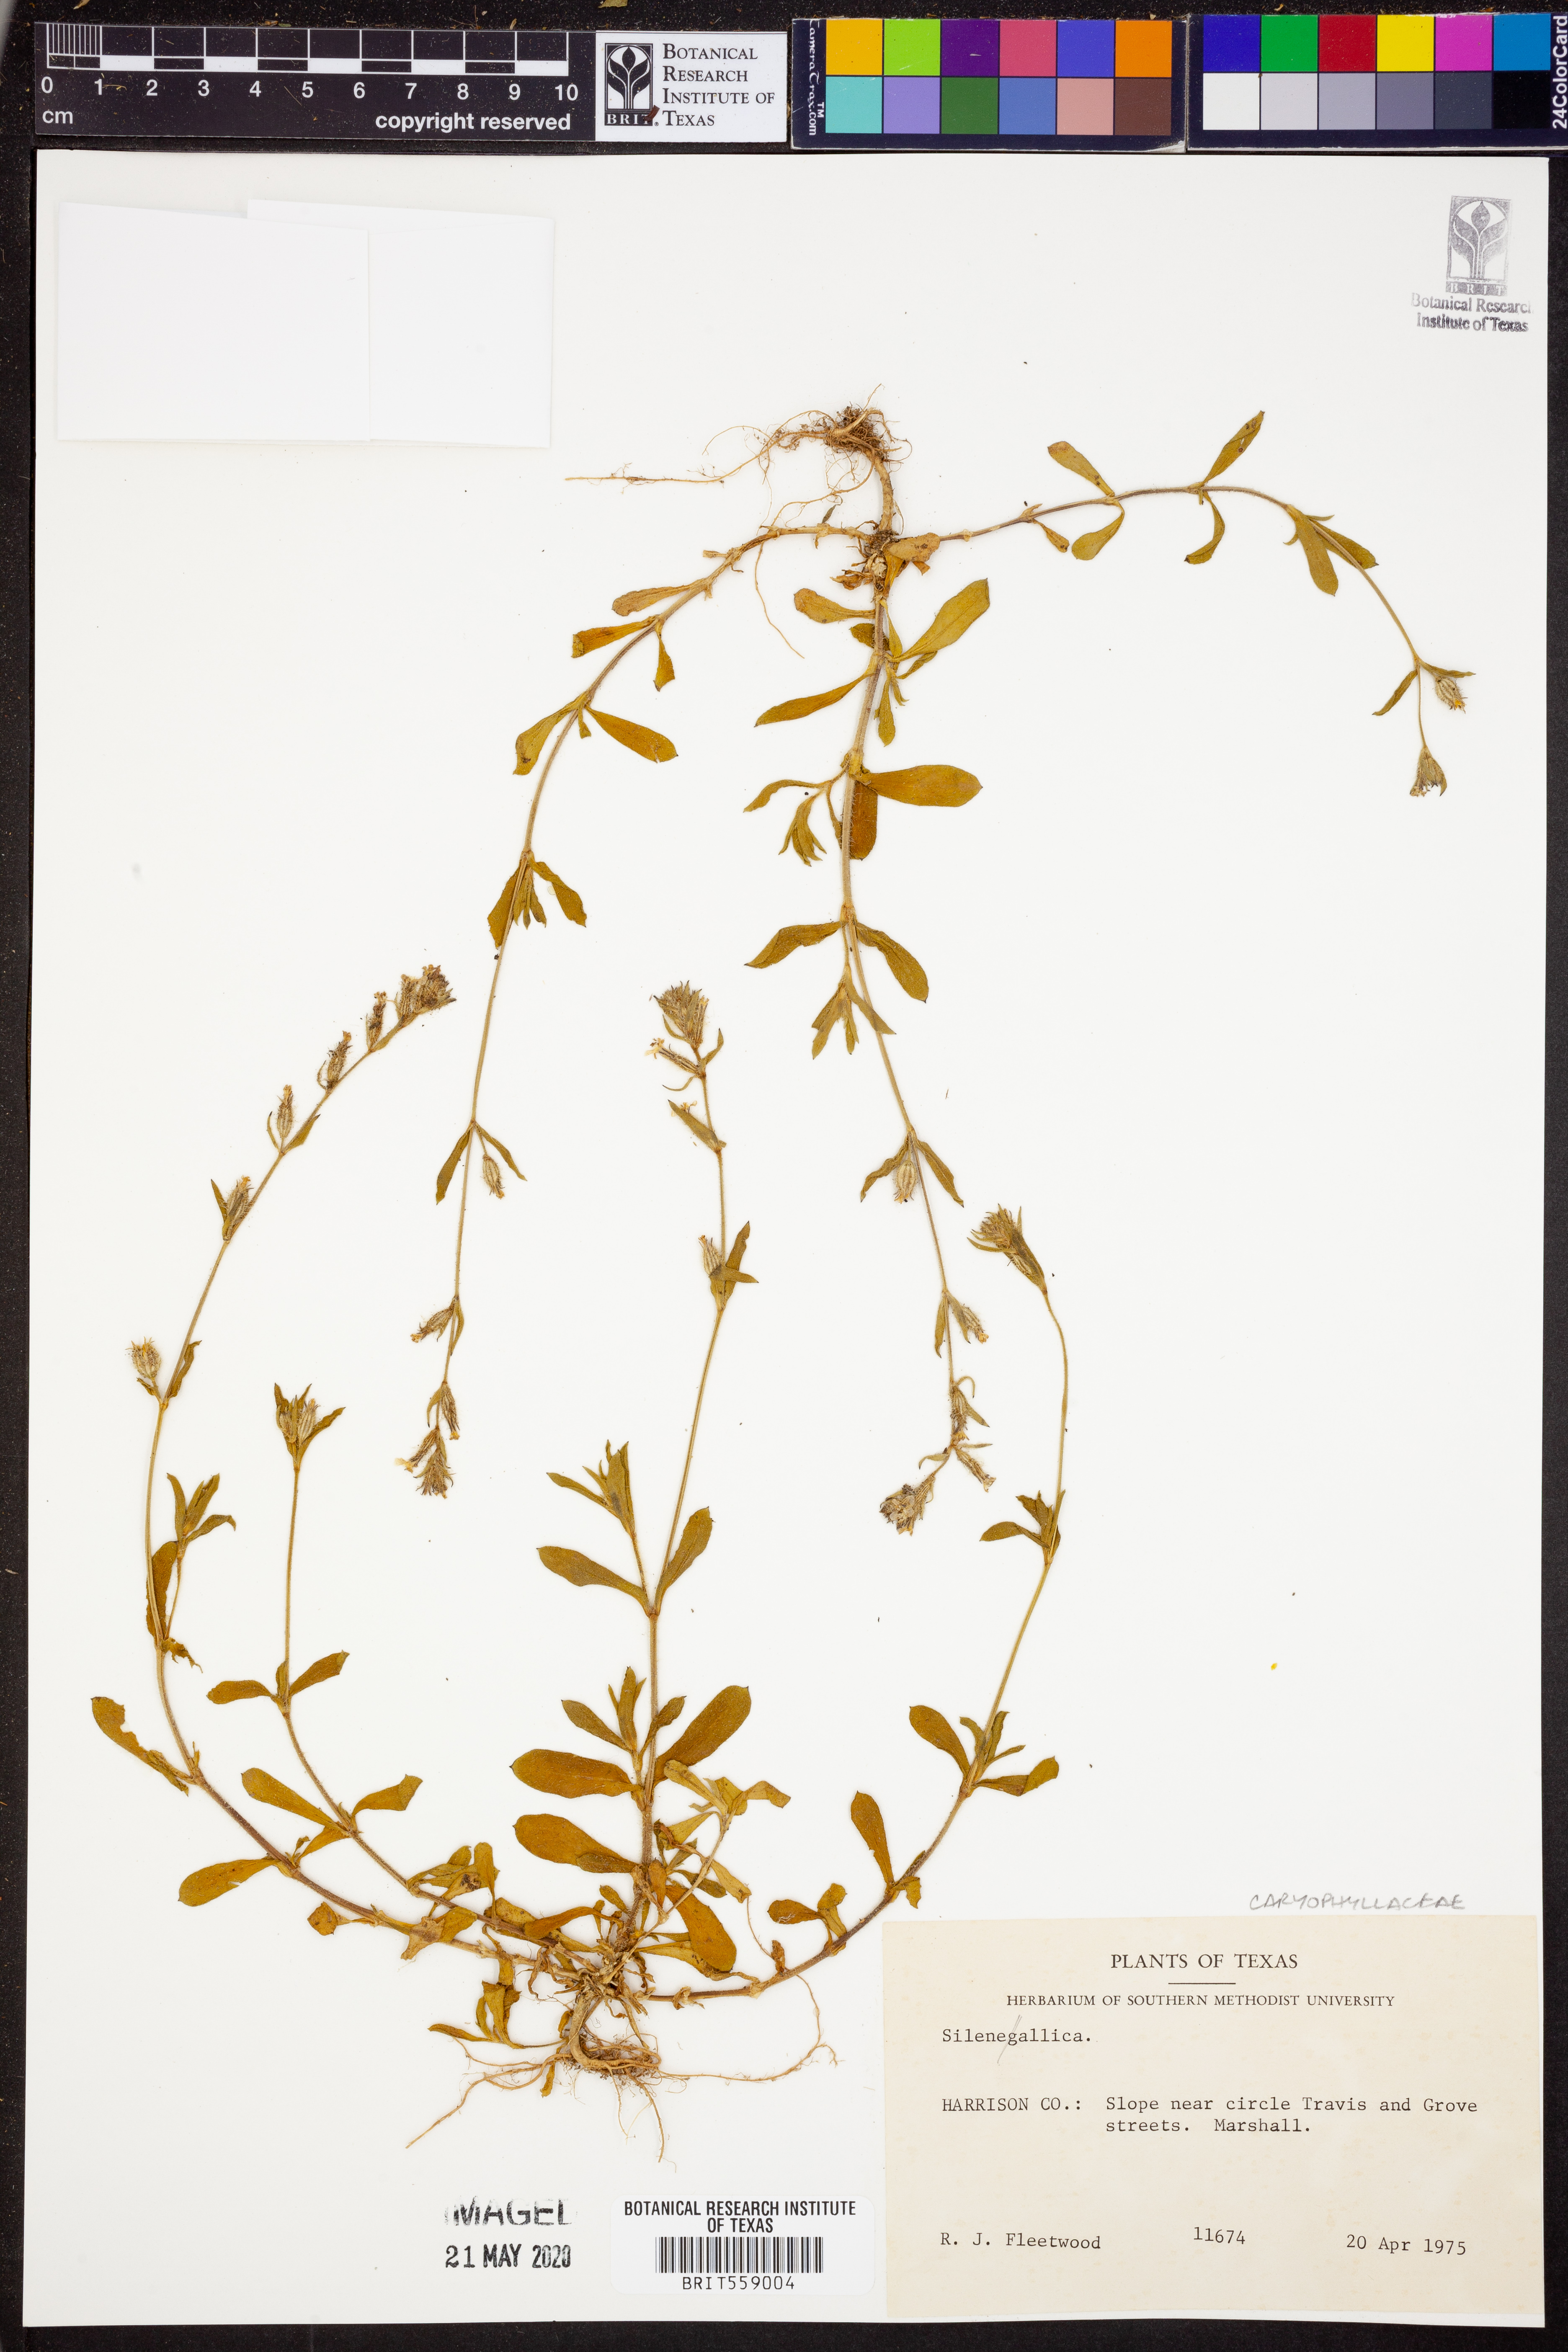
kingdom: Plantae
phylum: Tracheophyta
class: Magnoliopsida
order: Caryophyllales
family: Caryophyllaceae
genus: Silene
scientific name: Silene gallica
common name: Small-flowered catchfly
